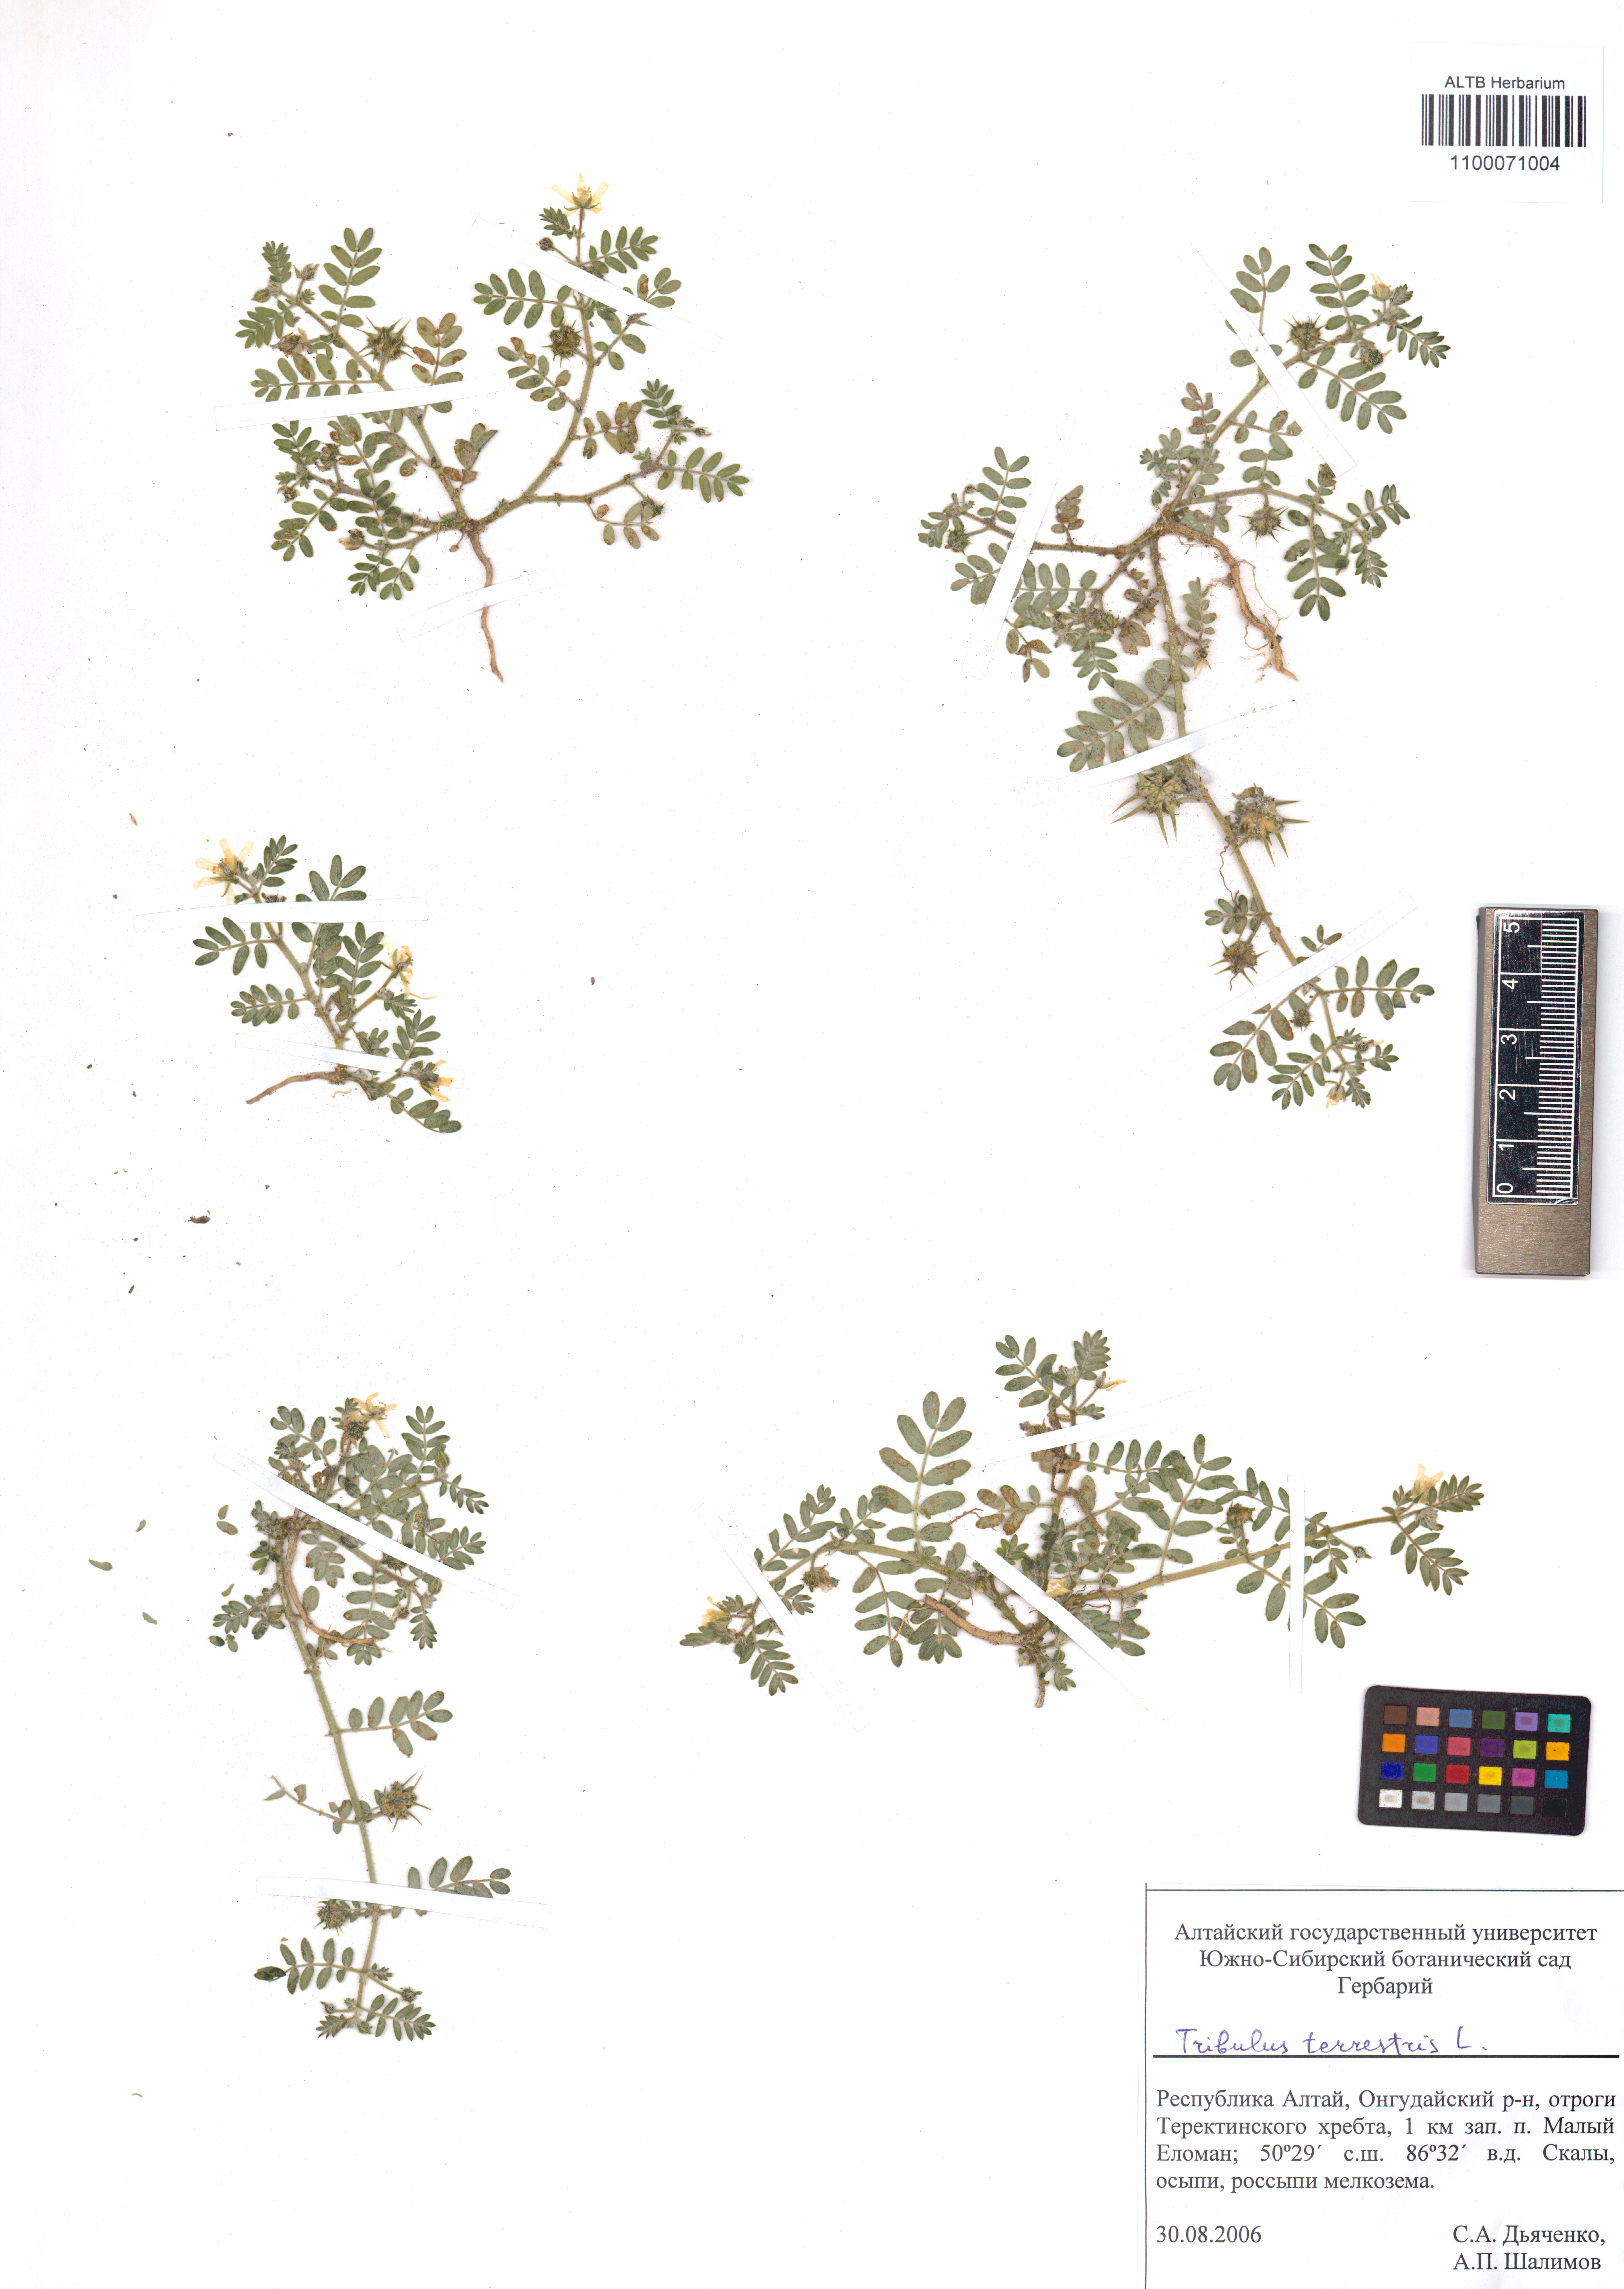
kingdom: Plantae
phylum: Tracheophyta
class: Magnoliopsida
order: Zygophyllales
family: Zygophyllaceae
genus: Tribulus
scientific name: Tribulus terrestris
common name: Puncturevine
